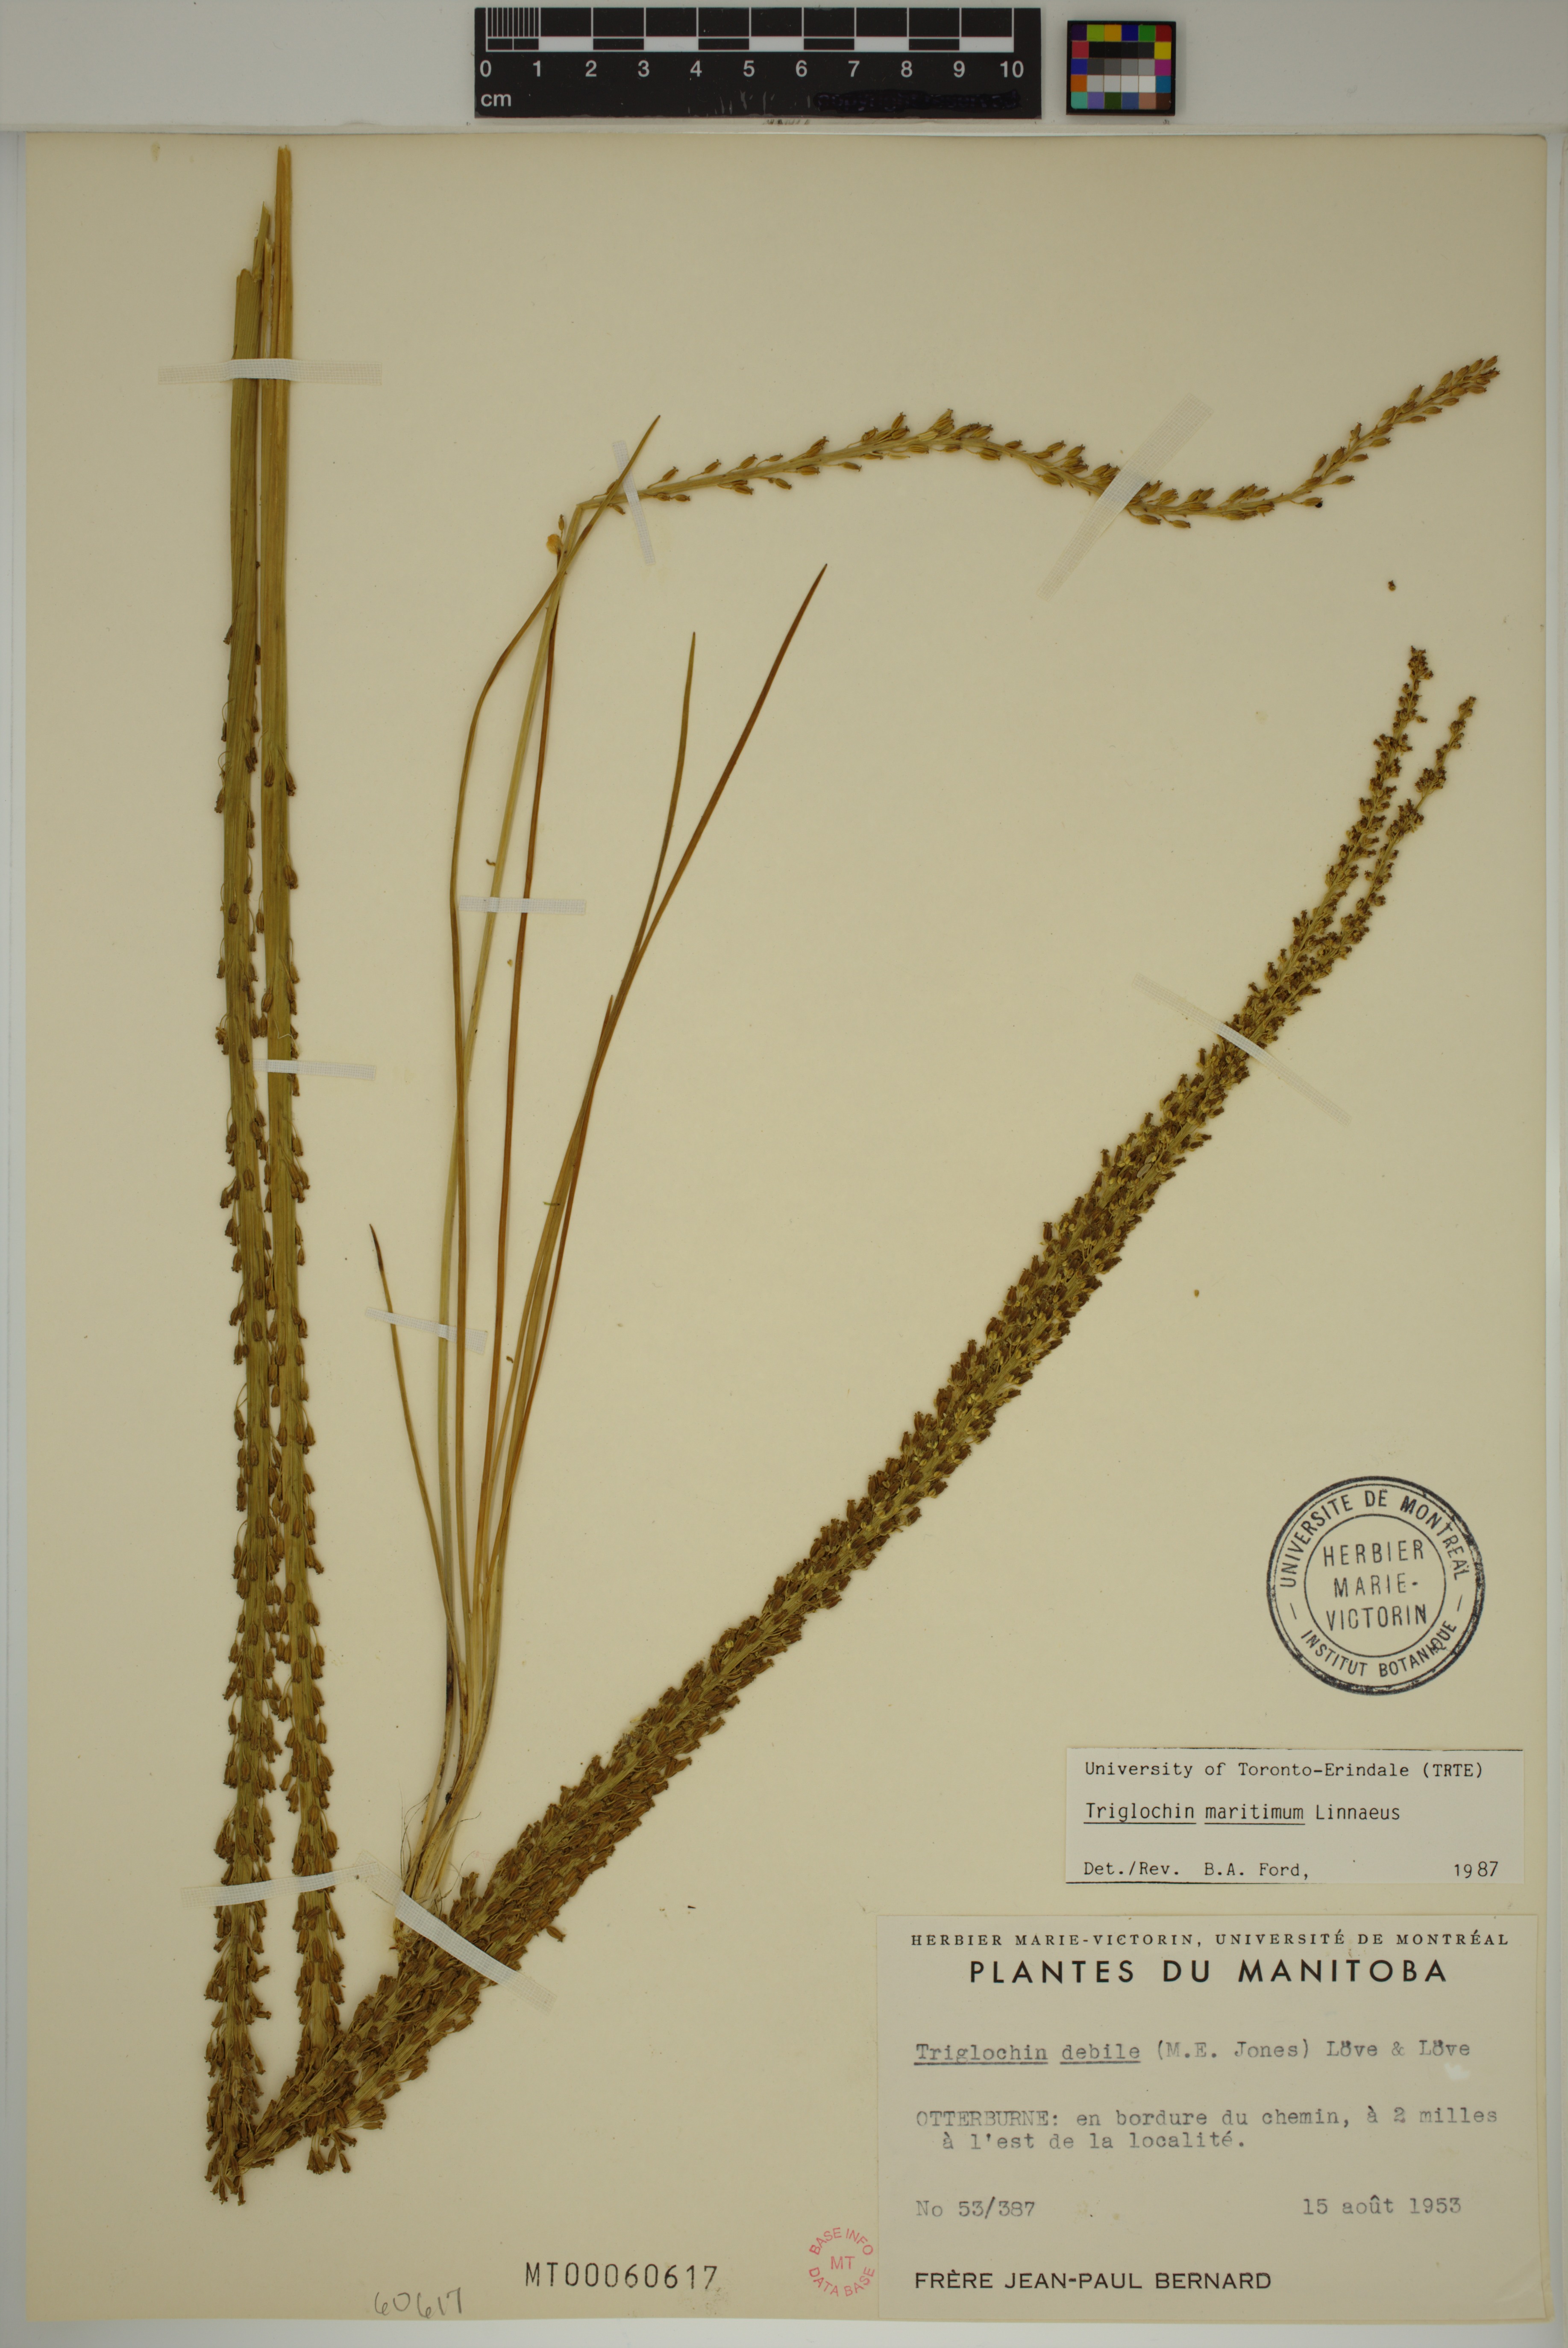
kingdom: Plantae
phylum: Tracheophyta
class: Liliopsida
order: Alismatales
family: Juncaginaceae
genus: Triglochin
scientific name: Triglochin maritima
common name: Sea arrowgrass
